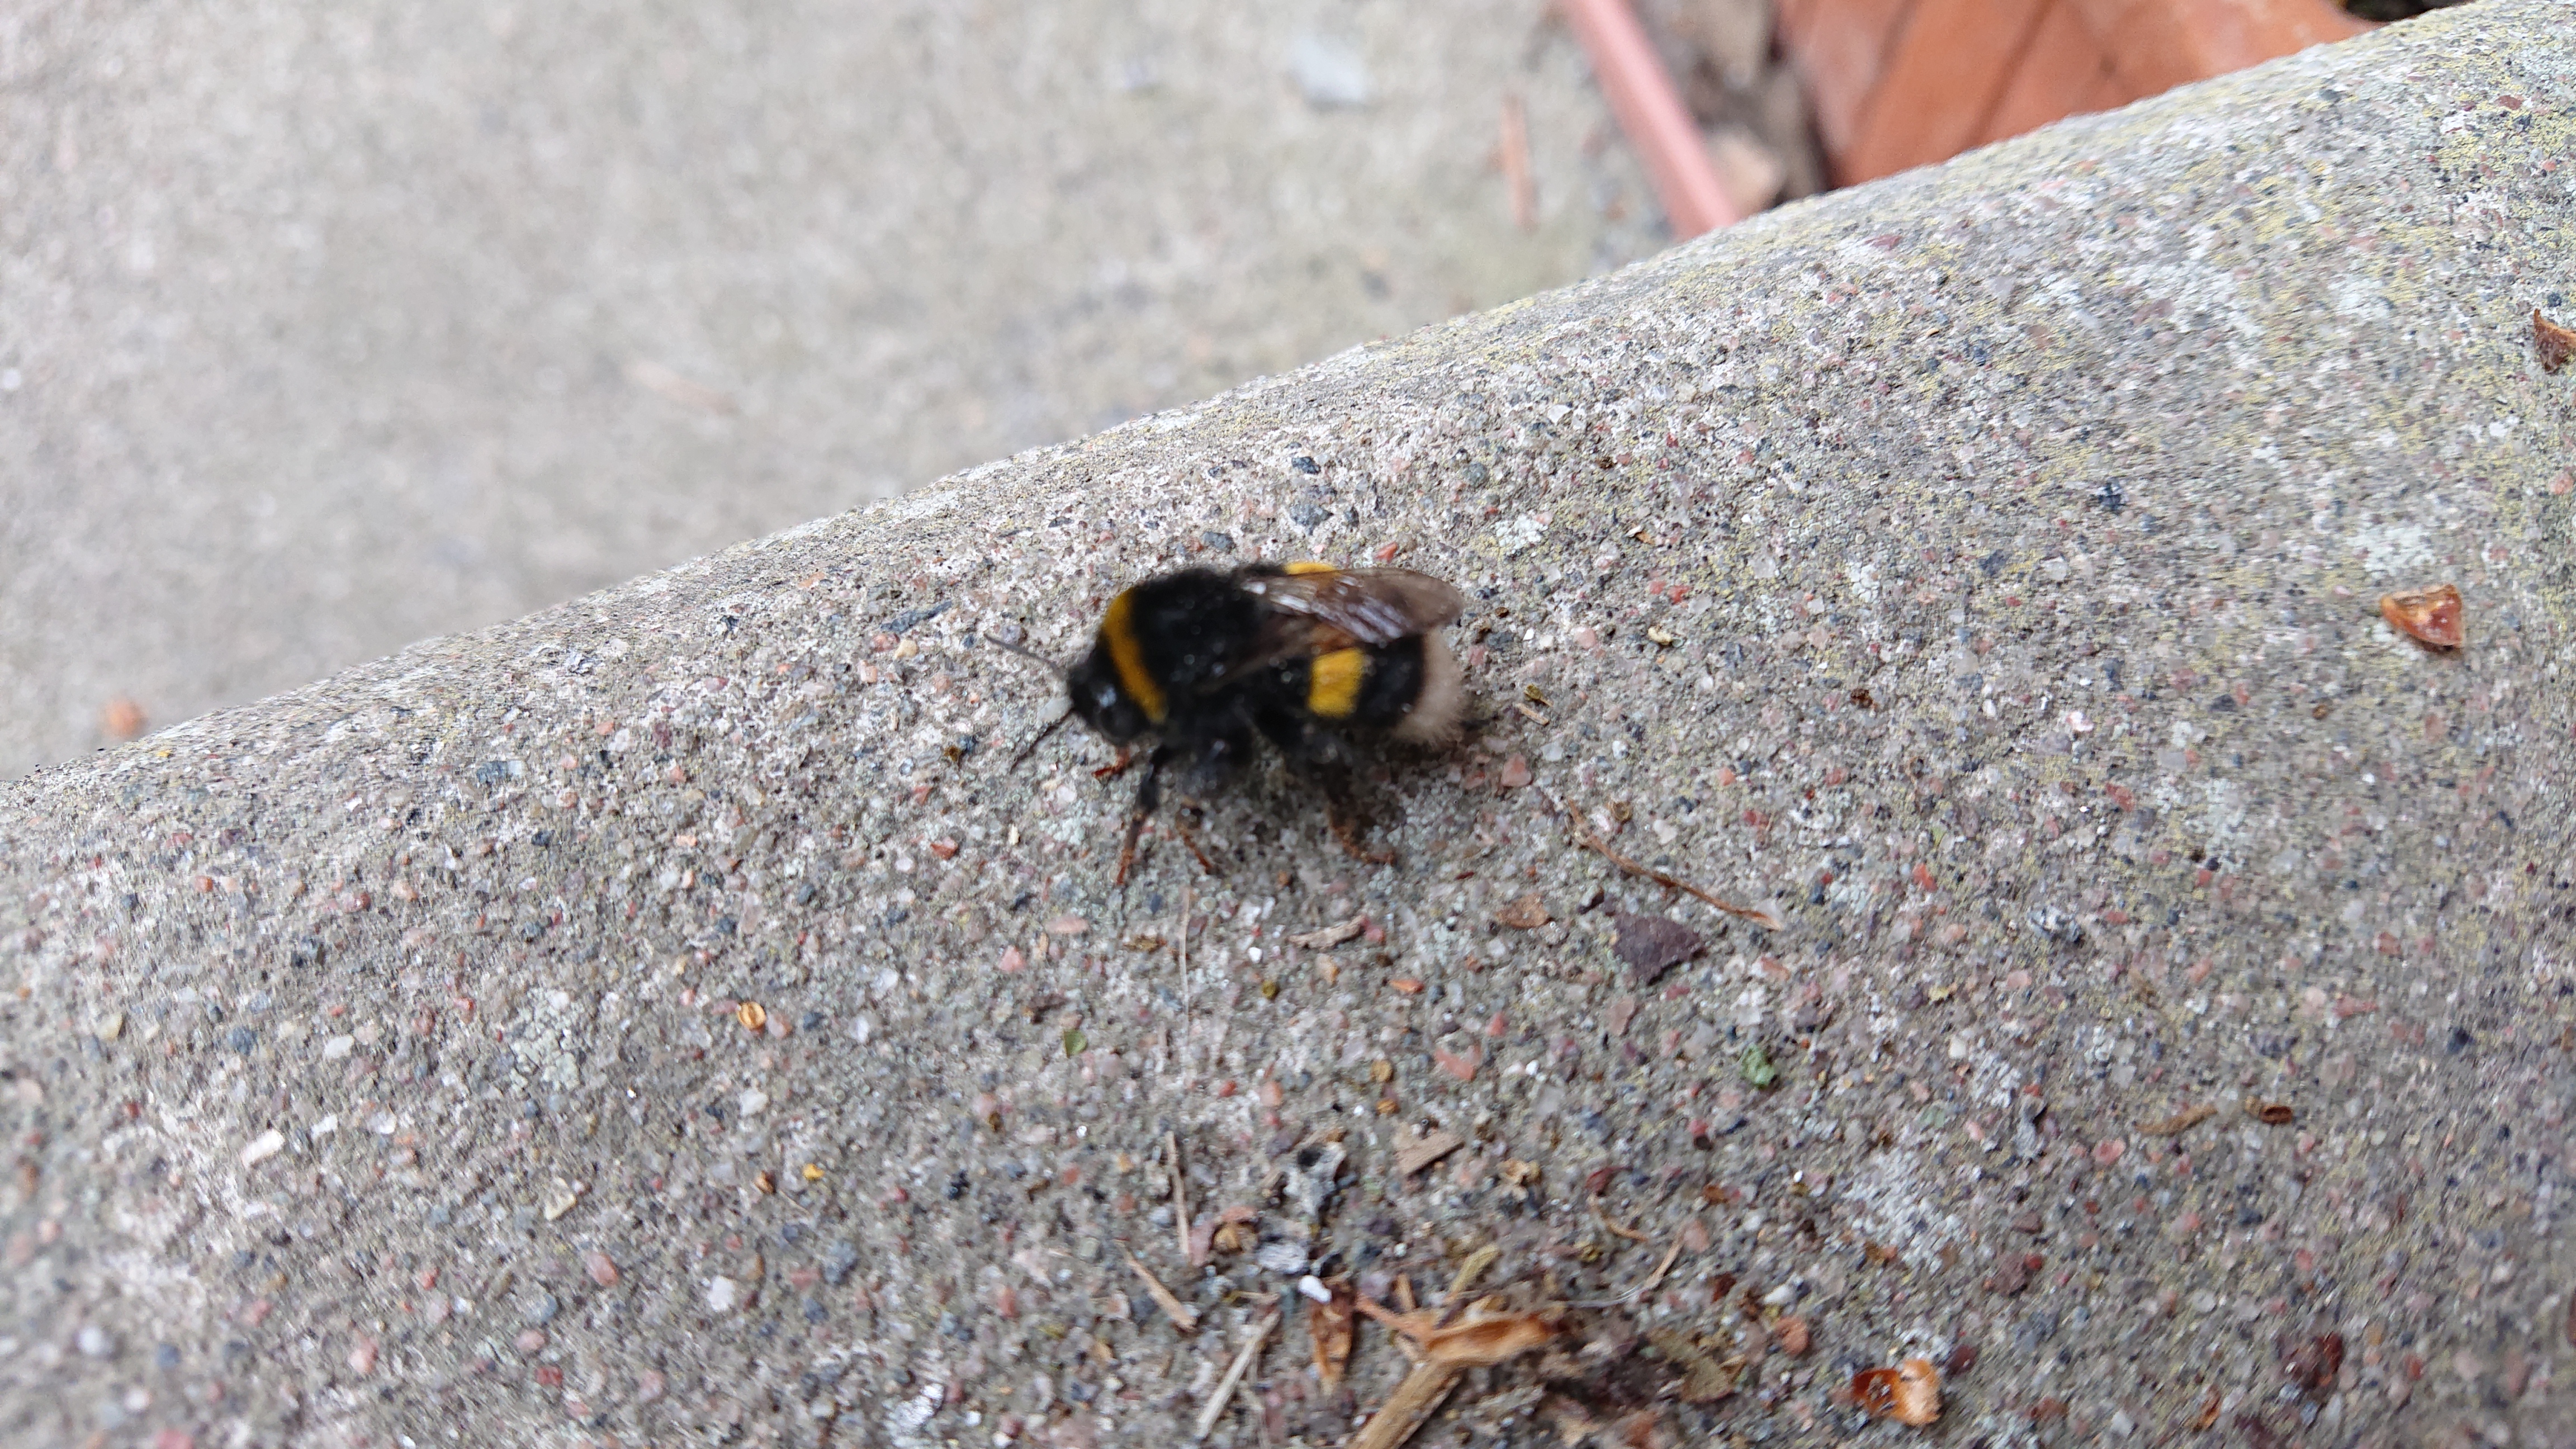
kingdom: Animalia
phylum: Arthropoda
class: Insecta
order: Hymenoptera
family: Apidae
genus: Bombus
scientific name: Bombus terrestris
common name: Buff-tailed bumblebee
